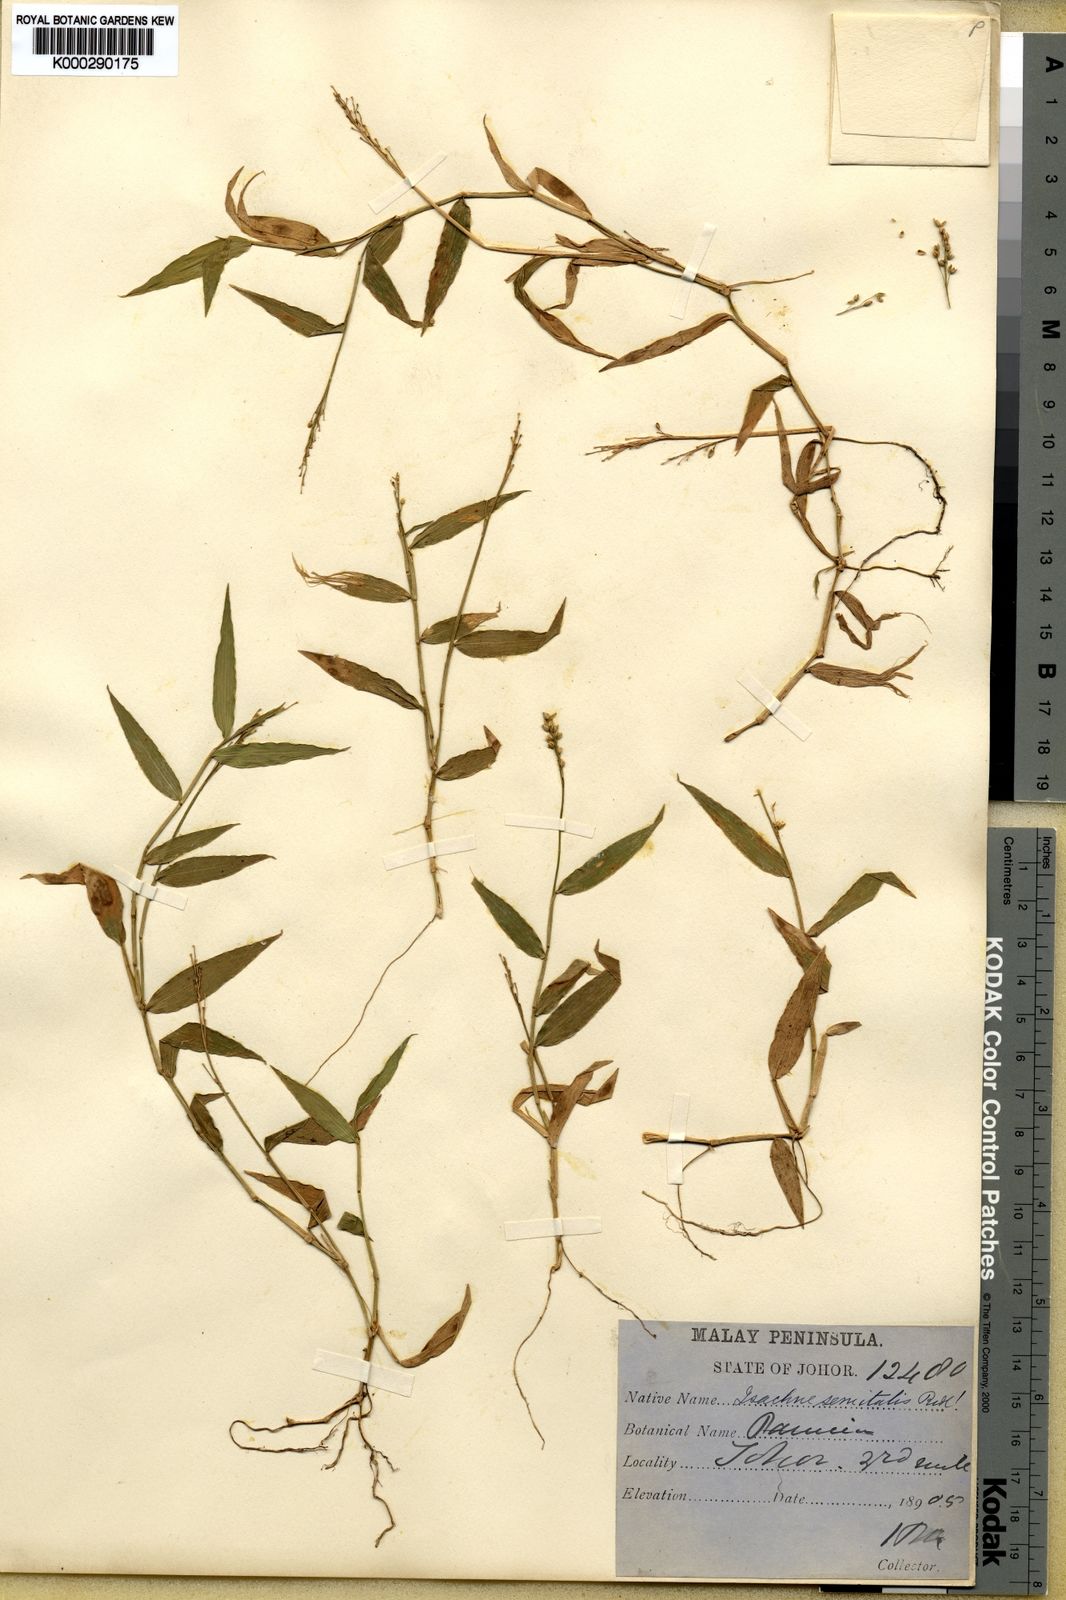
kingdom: Plantae
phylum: Tracheophyta
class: Liliopsida
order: Poales
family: Poaceae
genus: Isachne
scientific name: Isachne kunthiana
